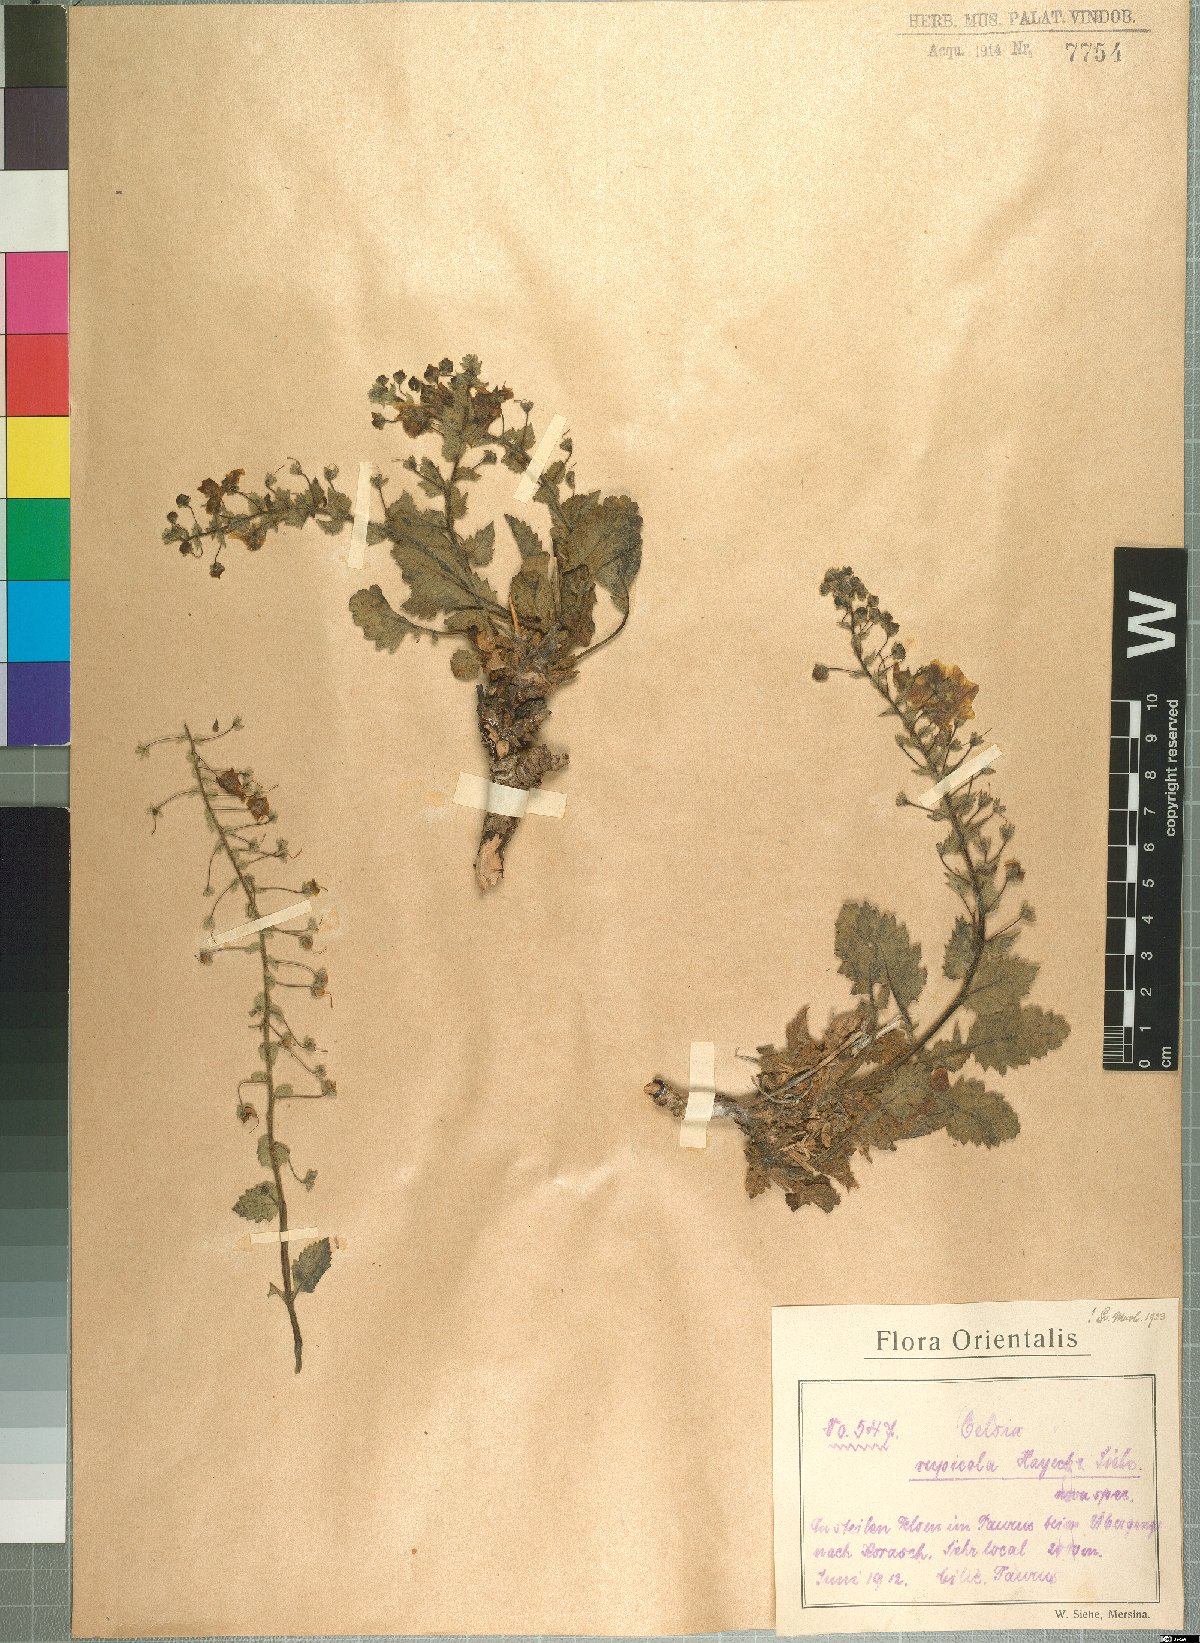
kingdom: Plantae
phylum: Tracheophyta
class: Magnoliopsida
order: Lamiales
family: Scrophulariaceae
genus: Verbascum
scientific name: Verbascum rupicola
